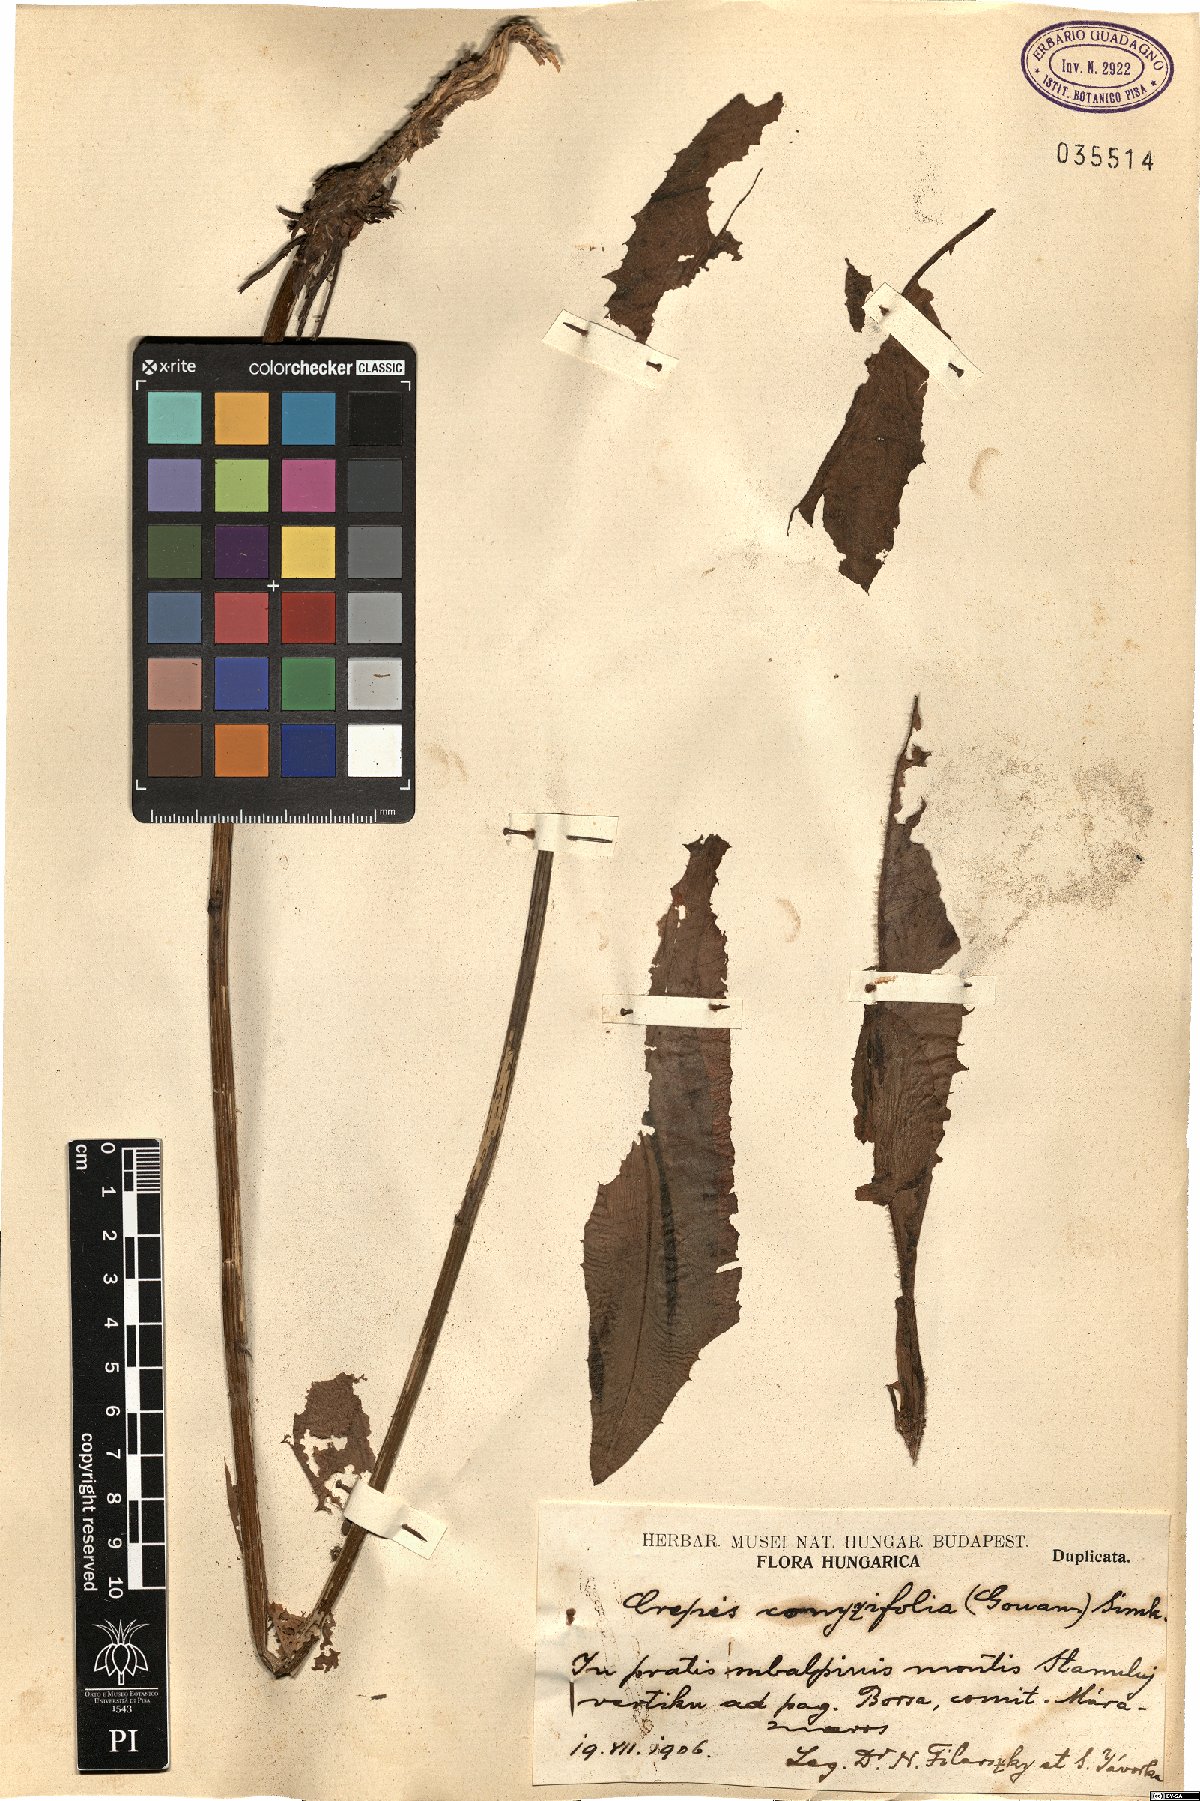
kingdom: Plantae
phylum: Tracheophyta
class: Magnoliopsida
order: Asterales
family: Asteraceae
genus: Crepis
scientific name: Crepis blattarioides
